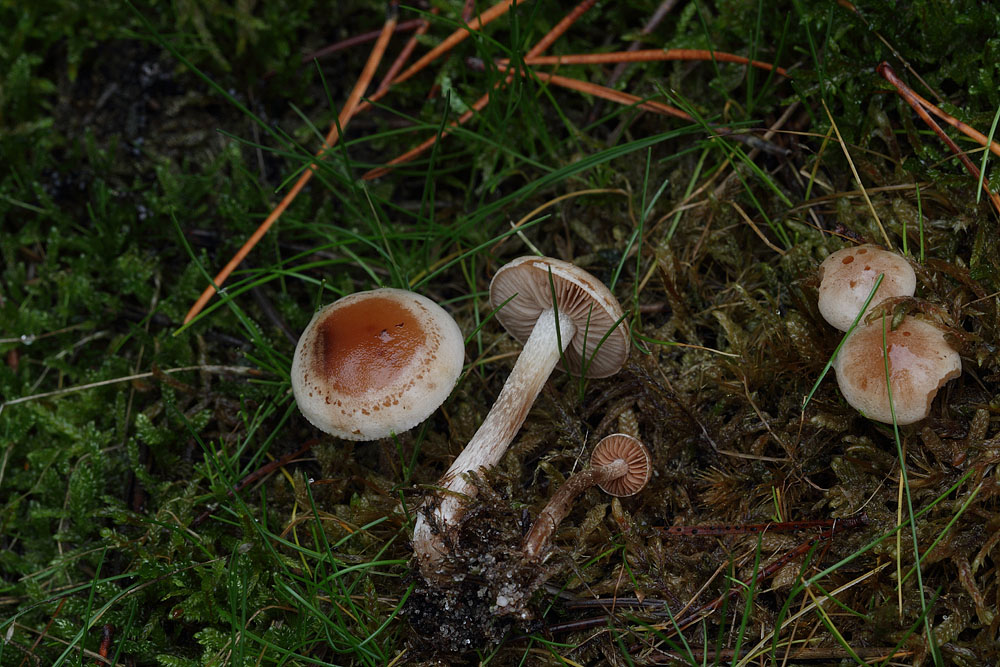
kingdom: Fungi
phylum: Basidiomycota
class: Agaricomycetes
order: Agaricales
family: Hymenogastraceae
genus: Hebeloma
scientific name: Hebeloma mesophaeum
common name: lerbrun tåreblad
